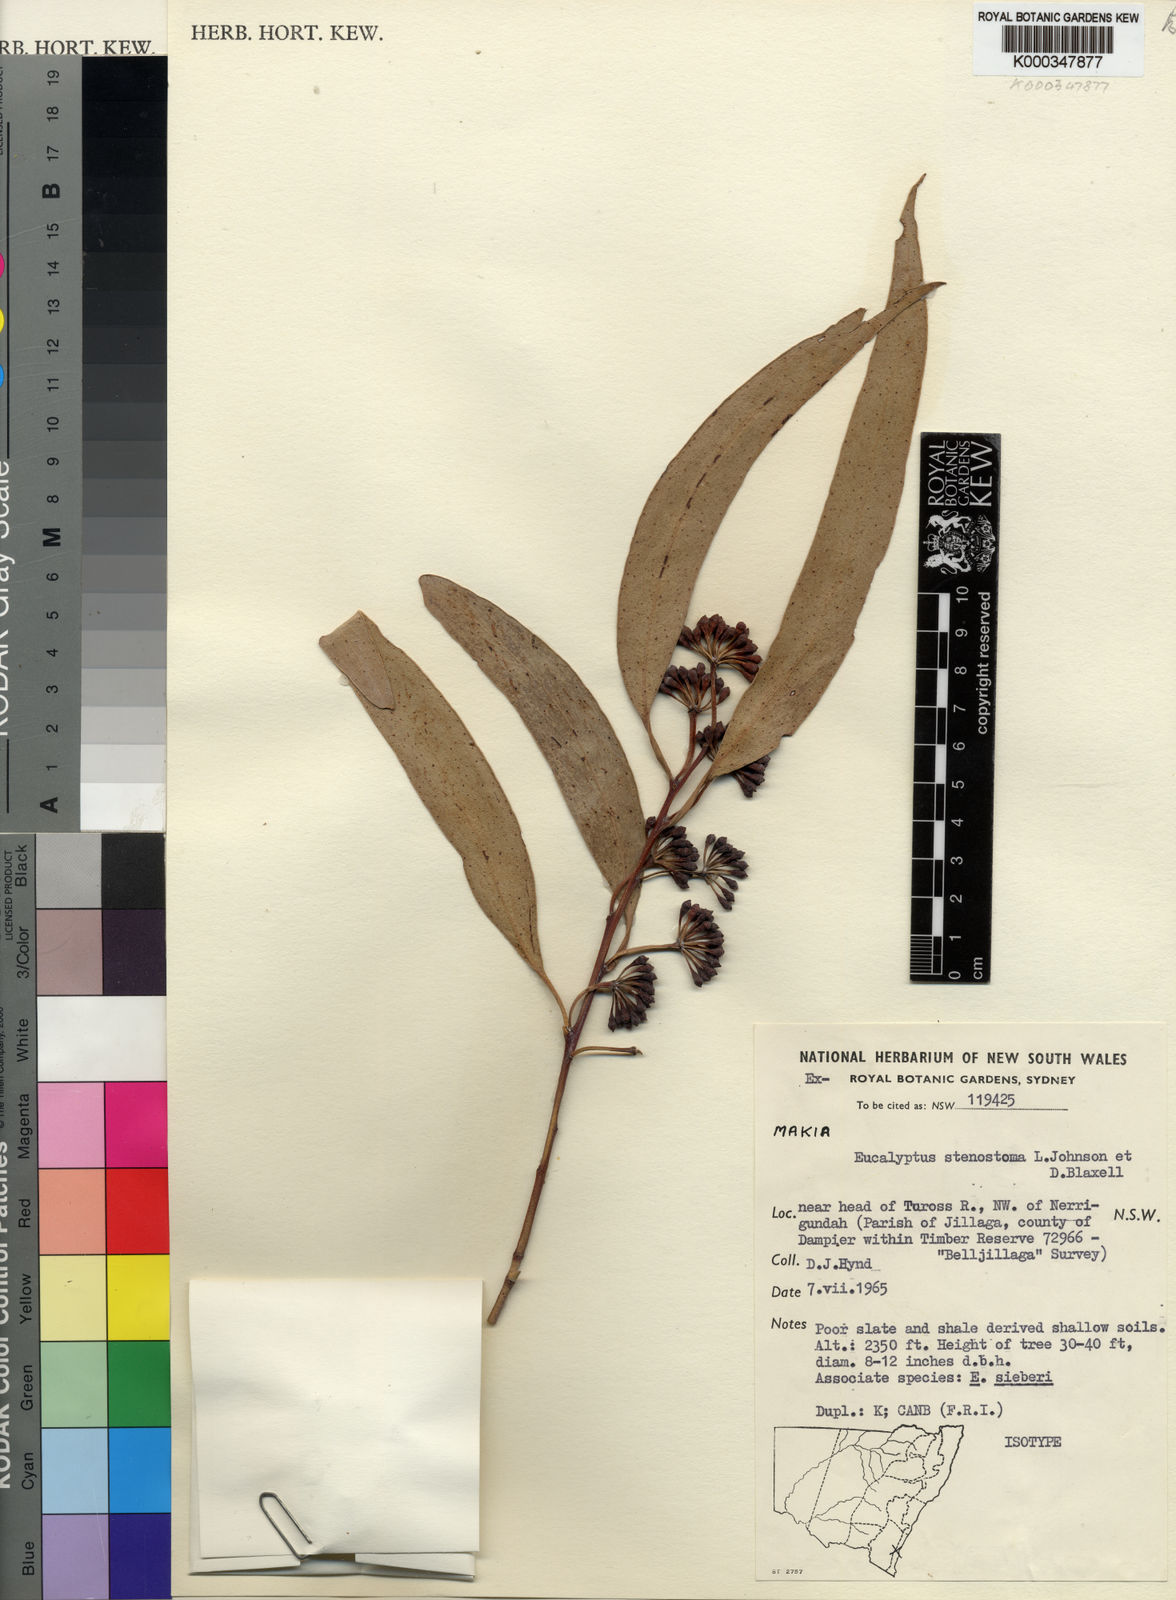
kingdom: Plantae
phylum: Tracheophyta
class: Magnoliopsida
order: Myrtales
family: Myrtaceae
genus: Eucalyptus
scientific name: Eucalyptus stenostoma
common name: Jillaga ash
